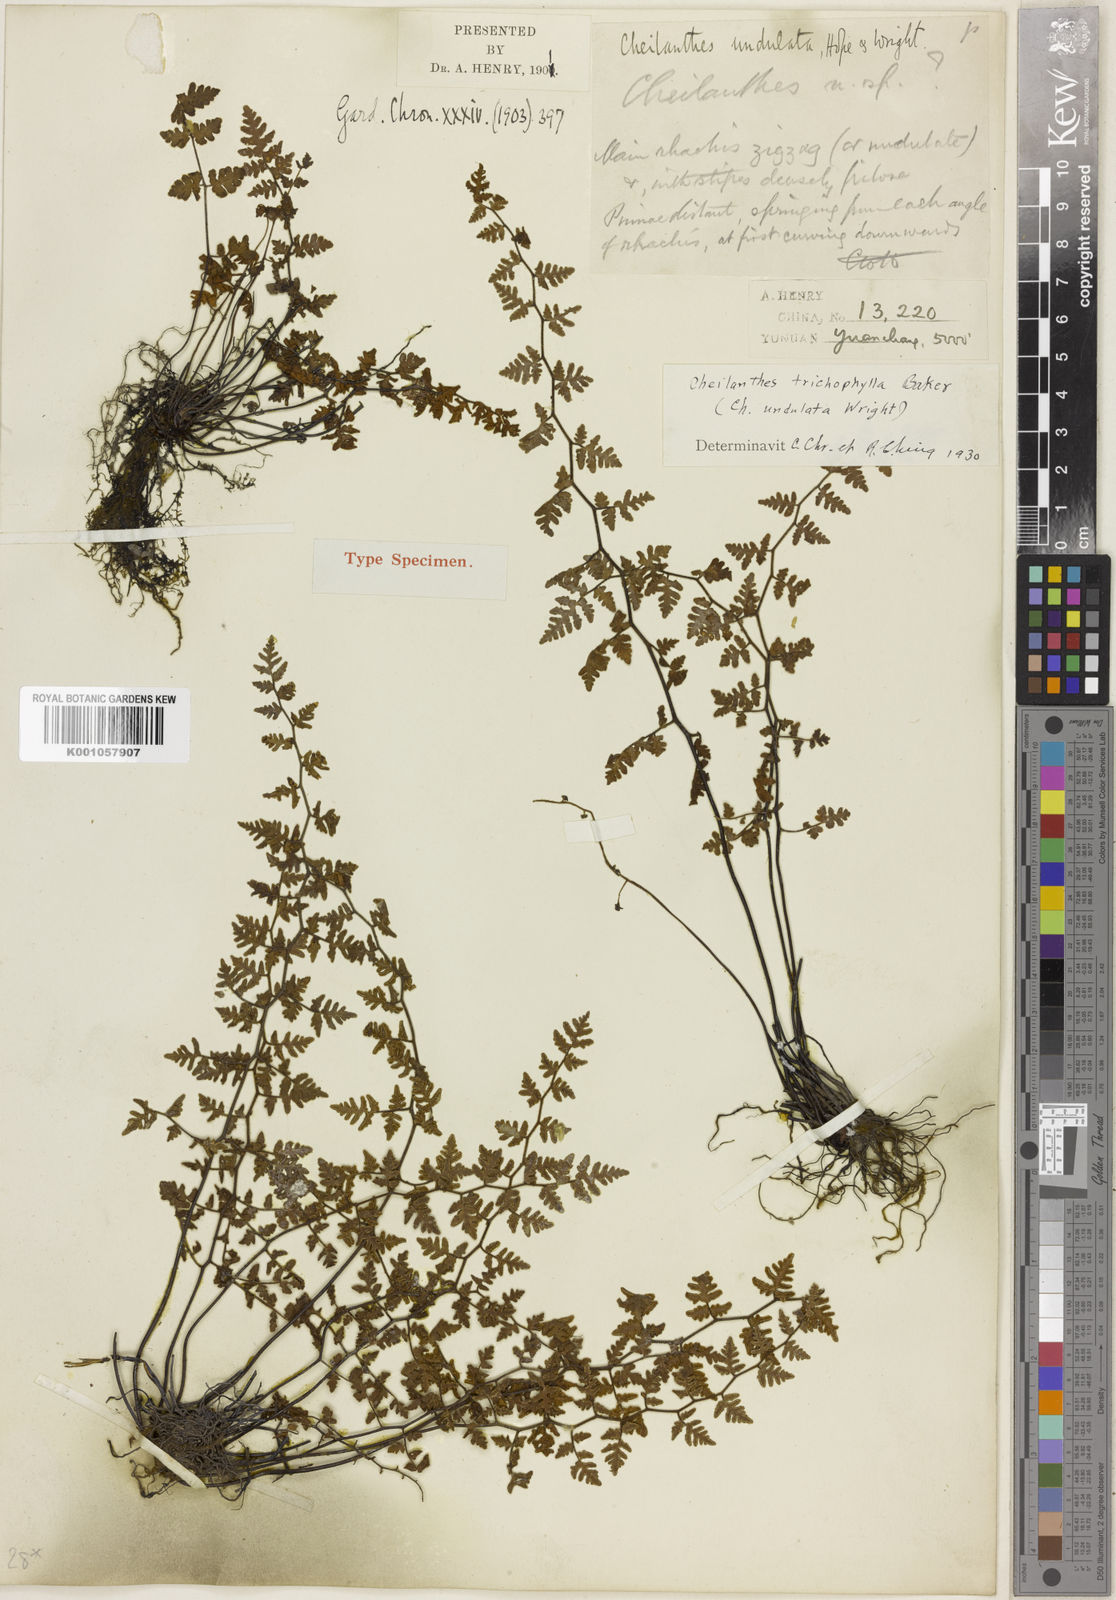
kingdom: Plantae
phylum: Tracheophyta
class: Polypodiopsida
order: Polypodiales
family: Pteridaceae
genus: Oeosporangium
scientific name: Oeosporangium trichophyllum
